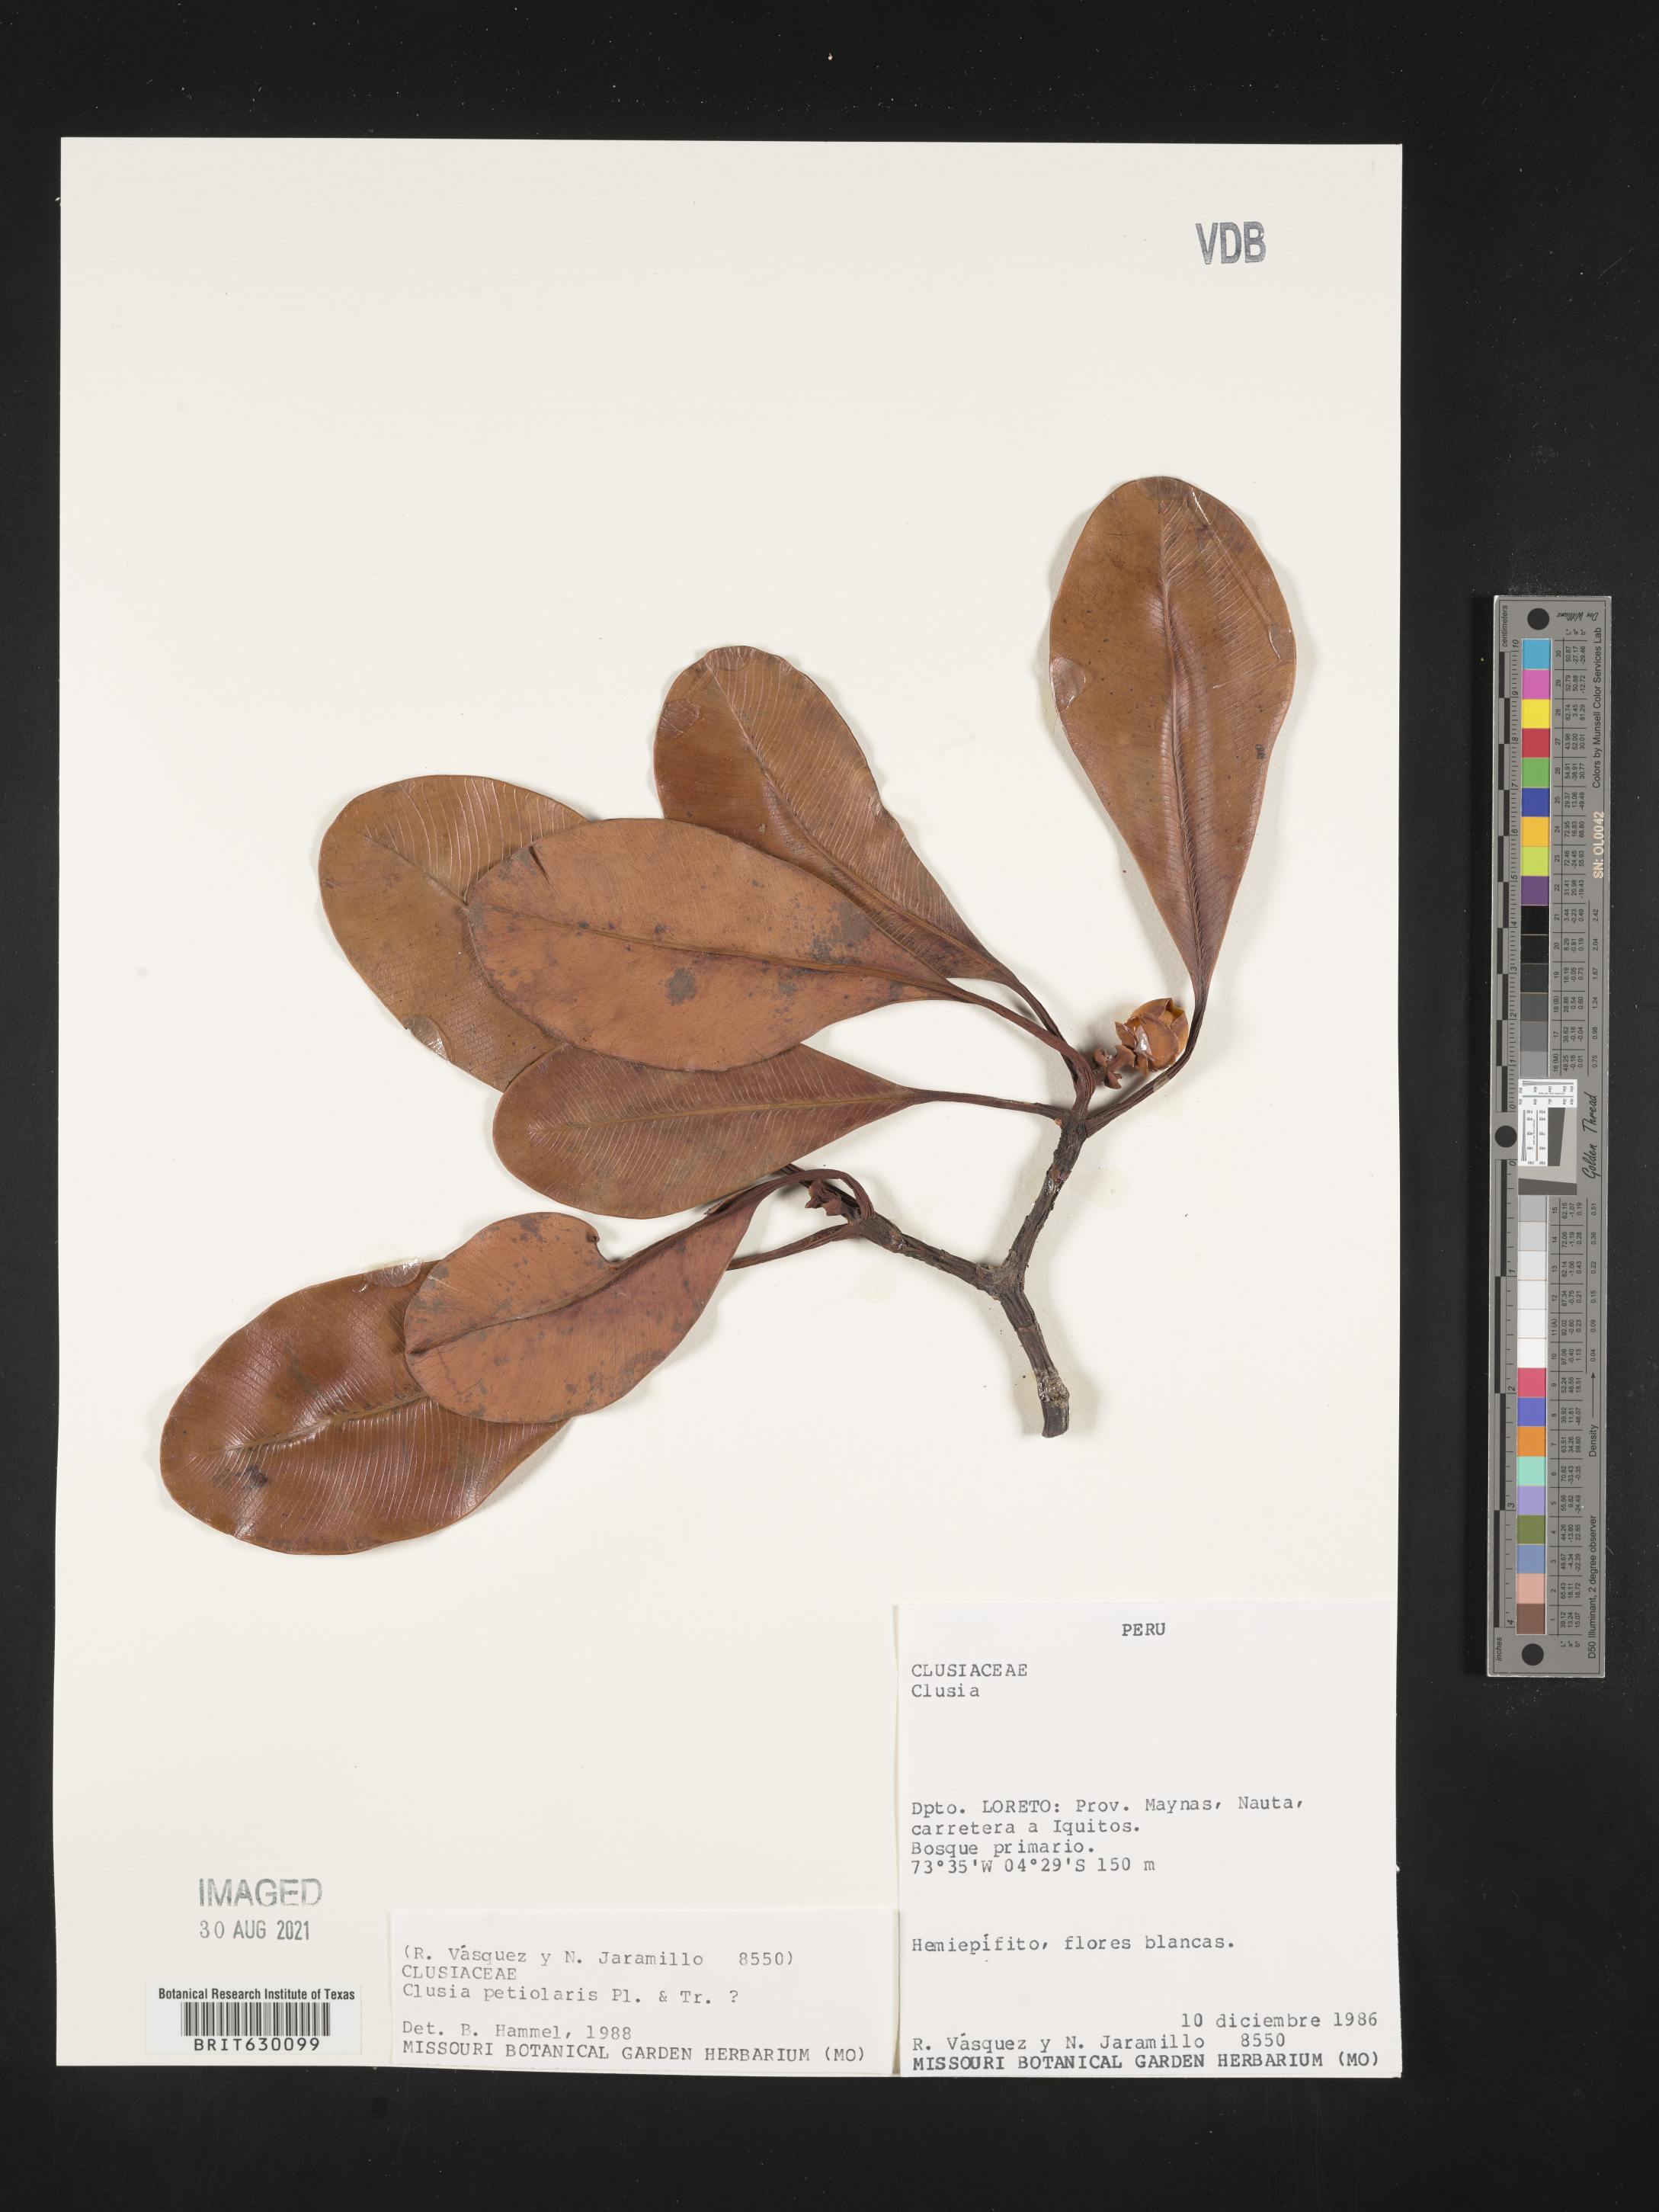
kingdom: Plantae
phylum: Tracheophyta
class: Magnoliopsida
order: Malpighiales
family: Clusiaceae
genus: Clusia
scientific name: Clusia petiolaris
